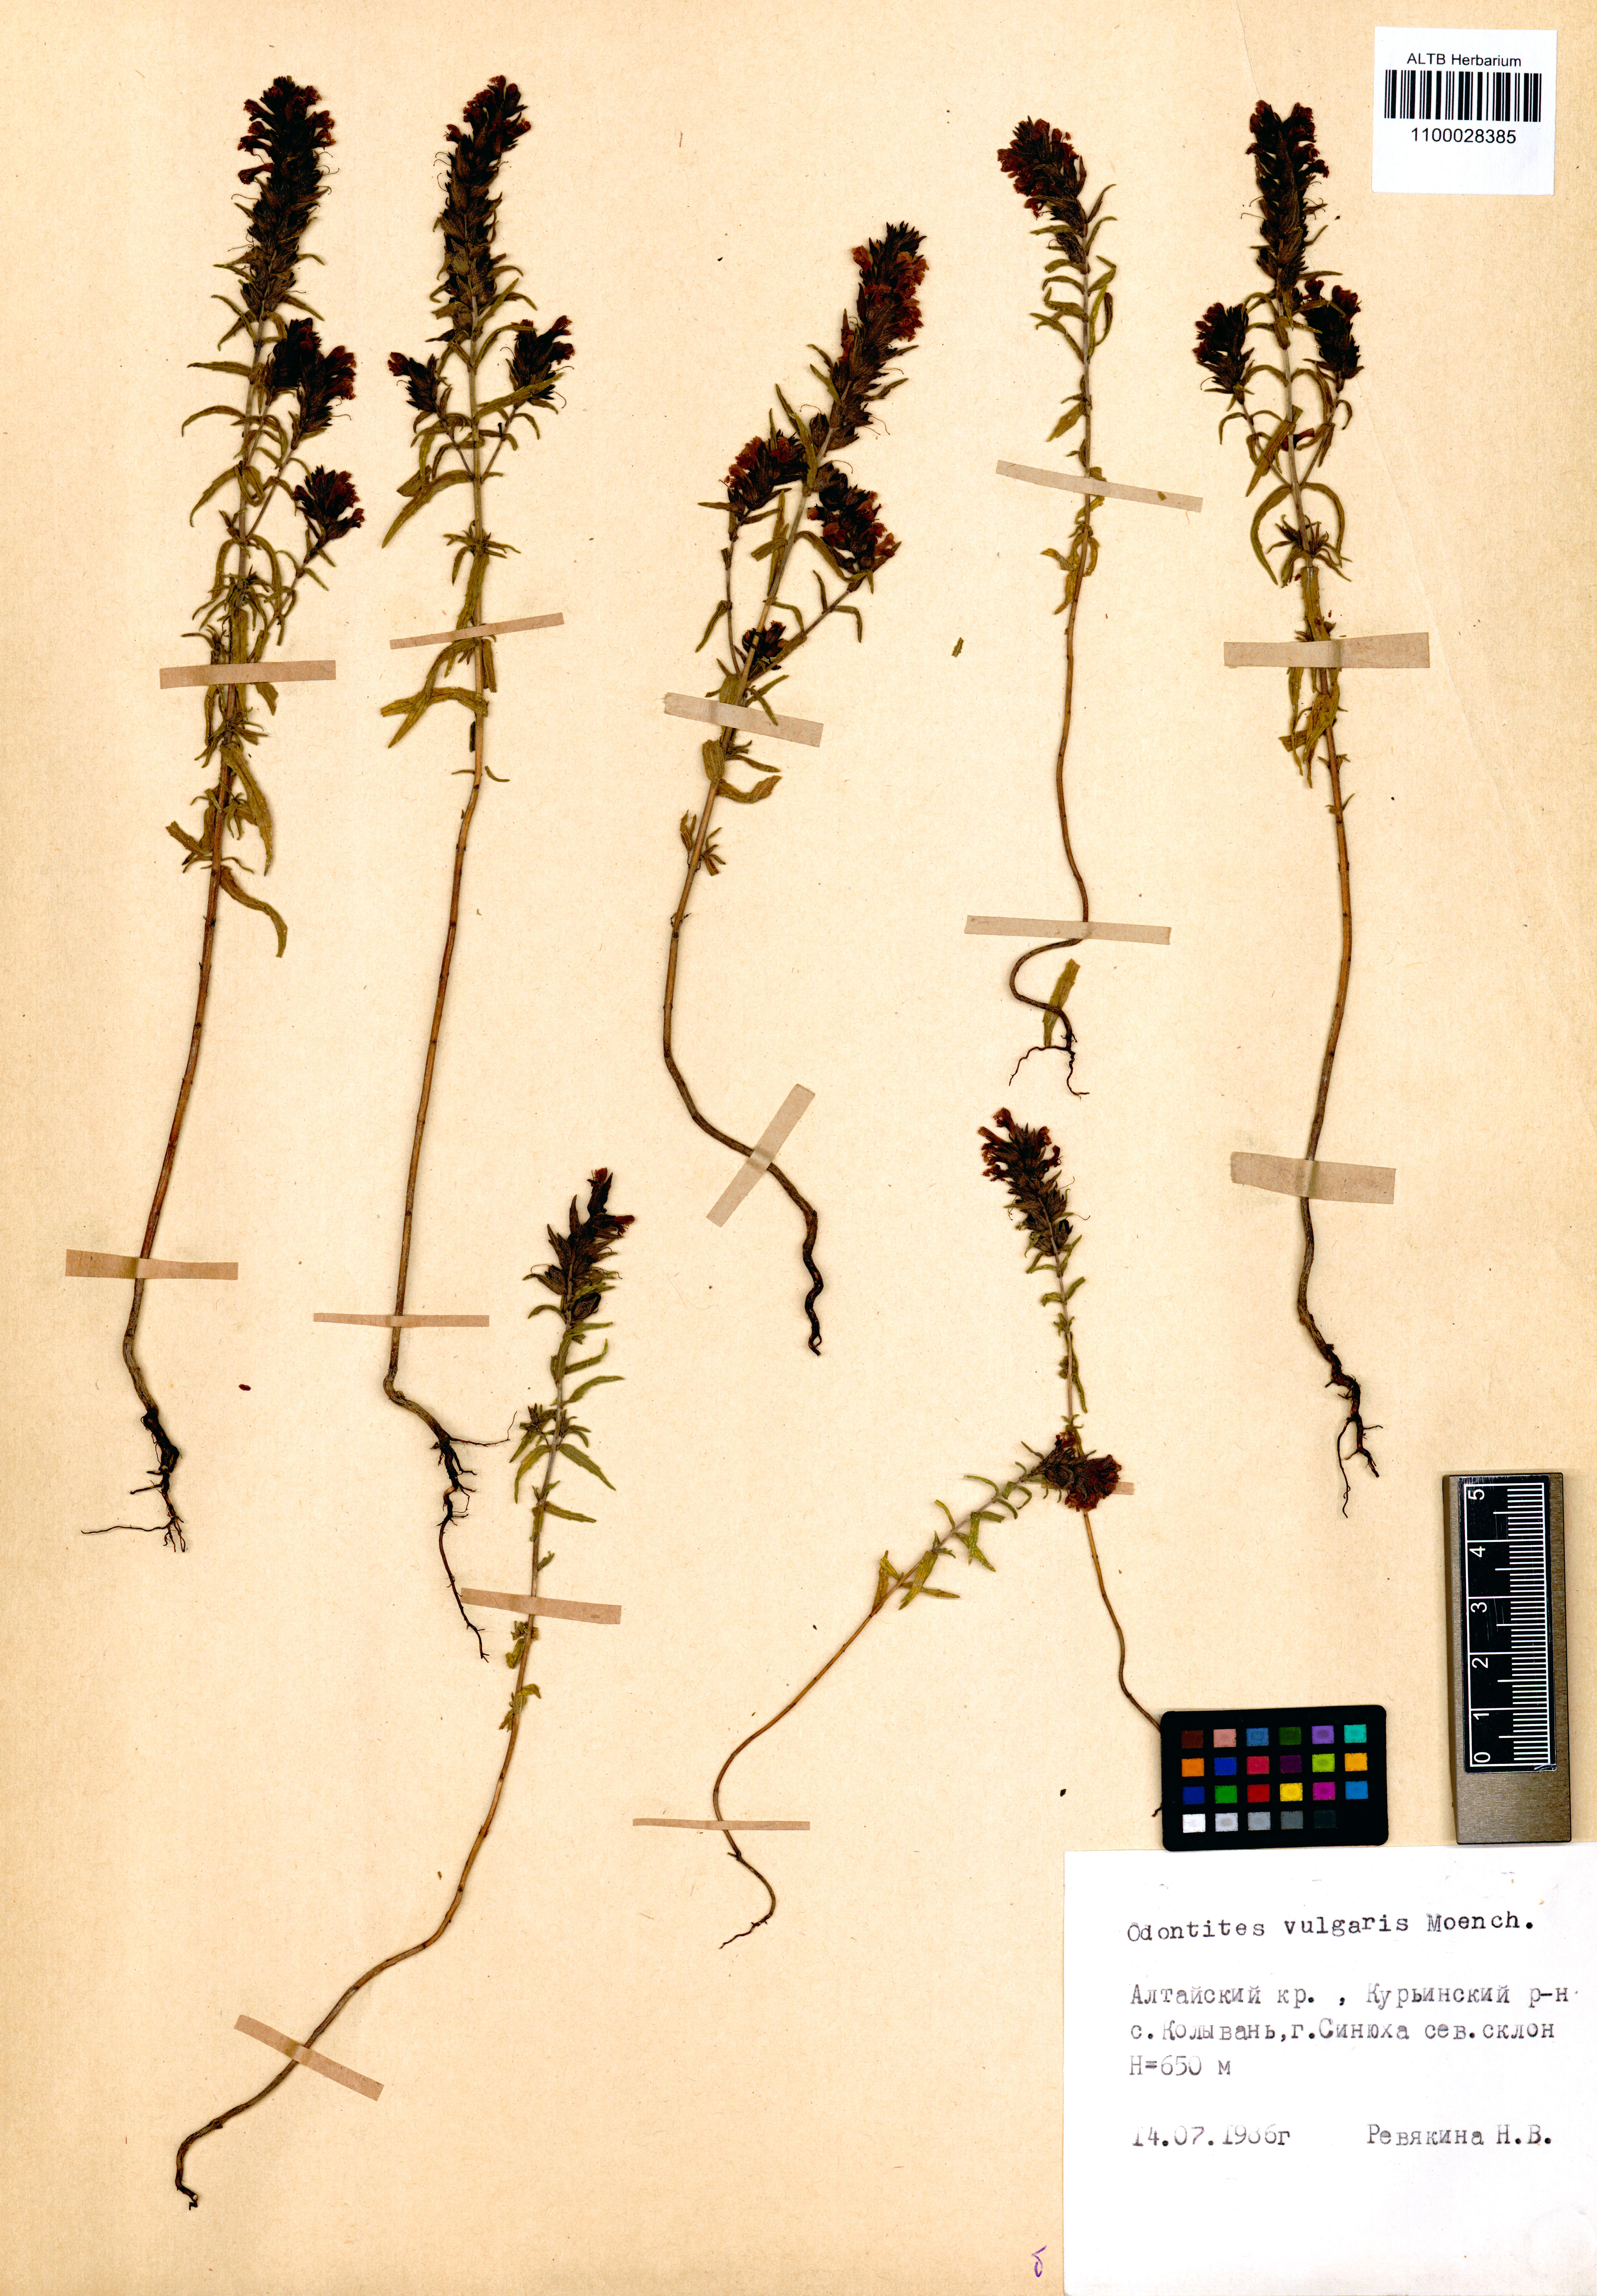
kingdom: Plantae
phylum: Tracheophyta
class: Magnoliopsida
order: Lamiales
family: Orobanchaceae
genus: Odontites
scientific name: Odontites vulgaris
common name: Broomrape
